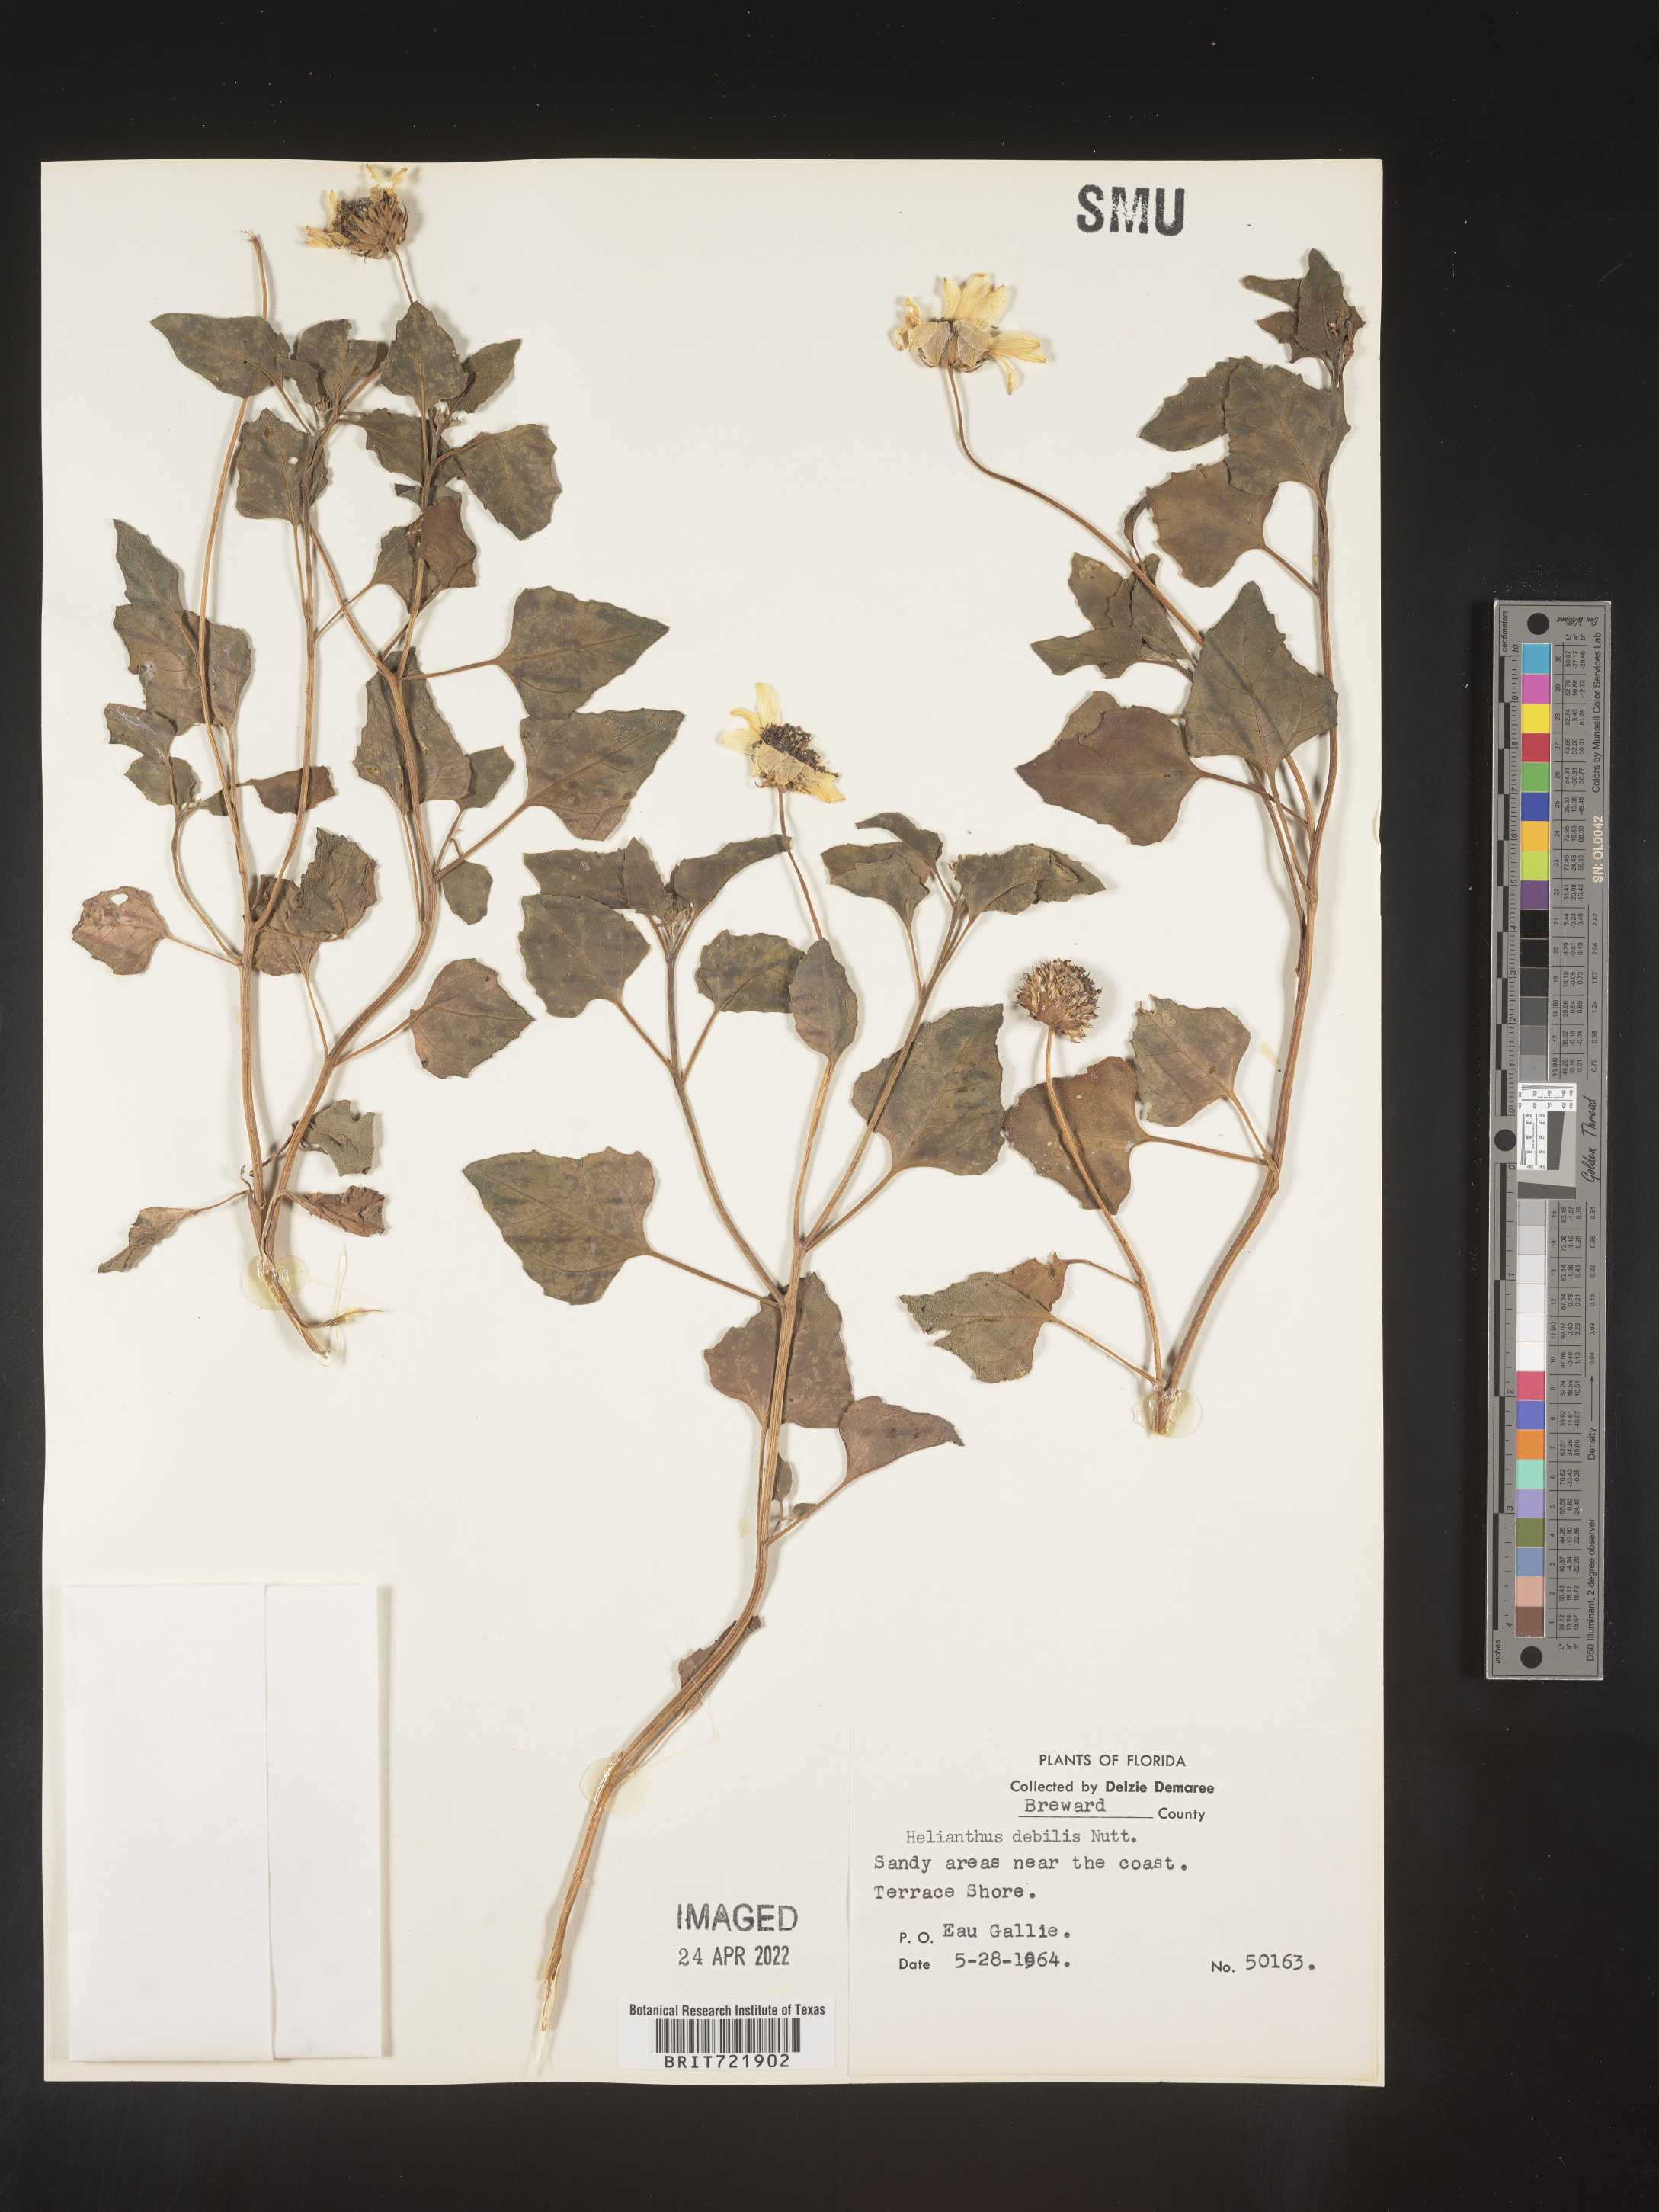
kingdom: Plantae
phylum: Tracheophyta
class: Magnoliopsida
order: Asterales
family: Asteraceae
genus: Helianthus
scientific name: Helianthus debilis
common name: Weak sunflower
